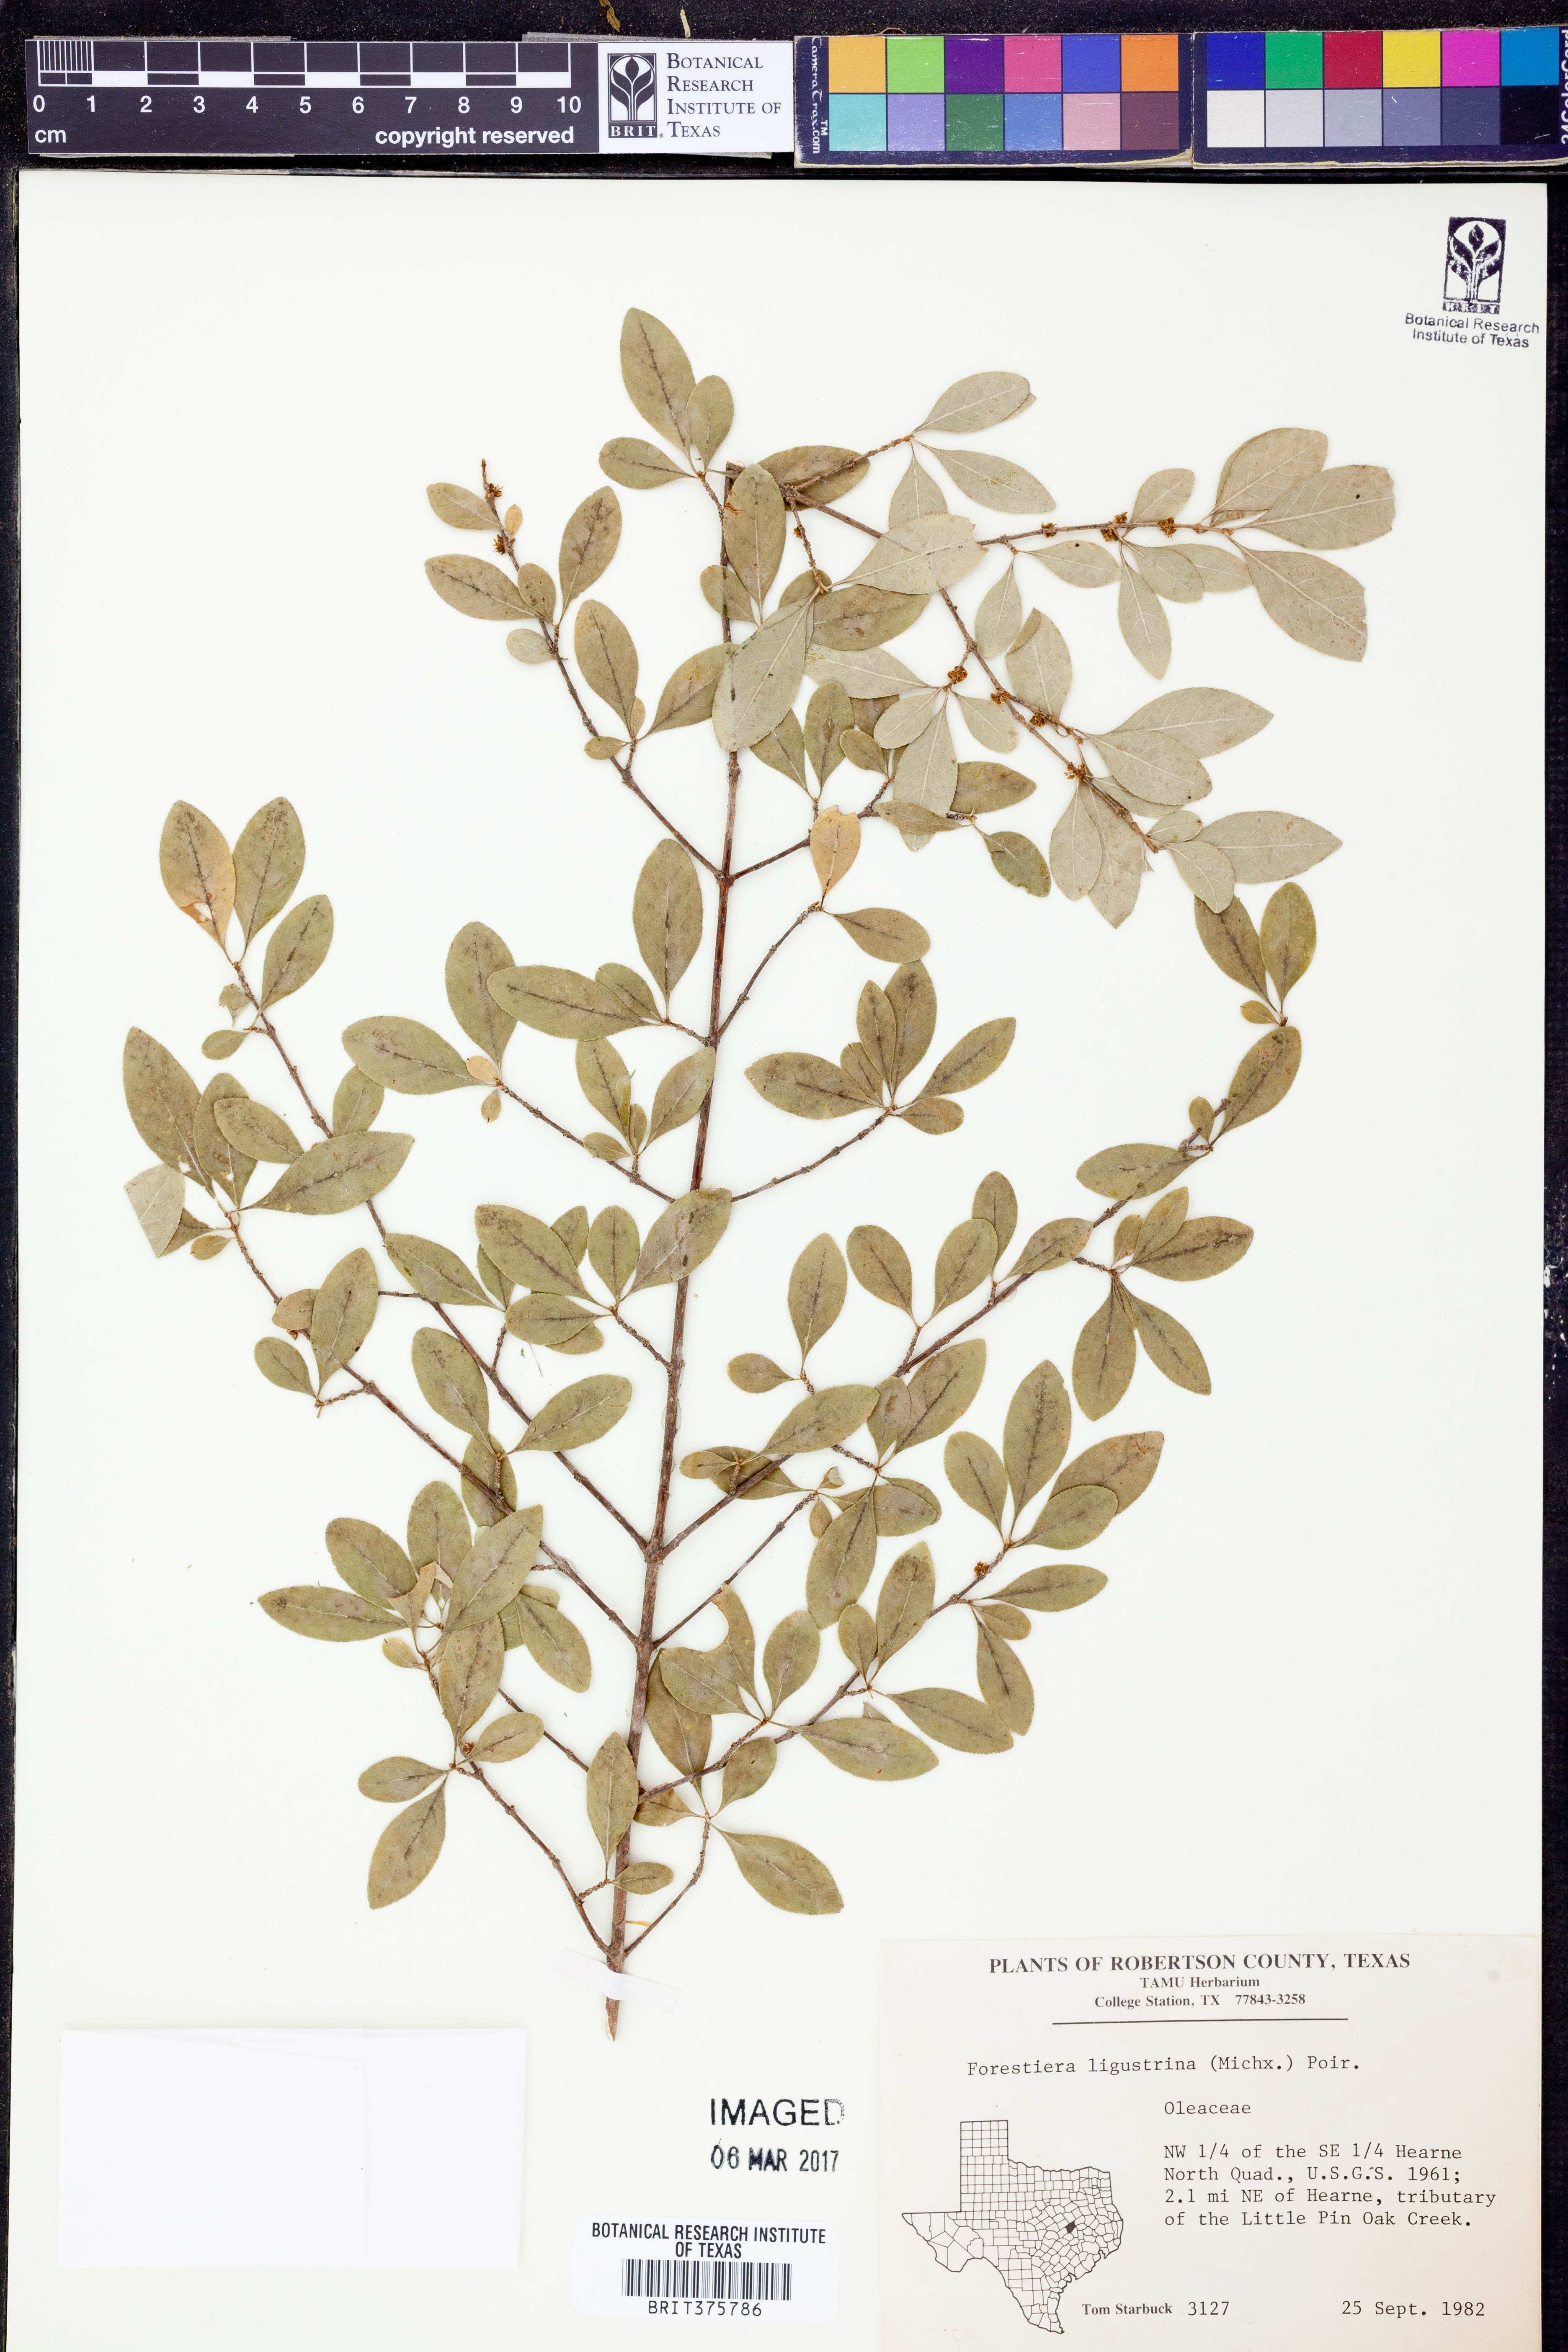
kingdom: Plantae
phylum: Tracheophyta
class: Magnoliopsida
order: Lamiales
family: Oleaceae
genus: Forestiera
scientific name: Forestiera ligustrina
